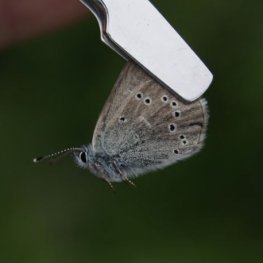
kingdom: Animalia
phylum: Arthropoda
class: Insecta
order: Lepidoptera
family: Lycaenidae
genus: Glaucopsyche
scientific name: Glaucopsyche lygdamus
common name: Silvery Blue
